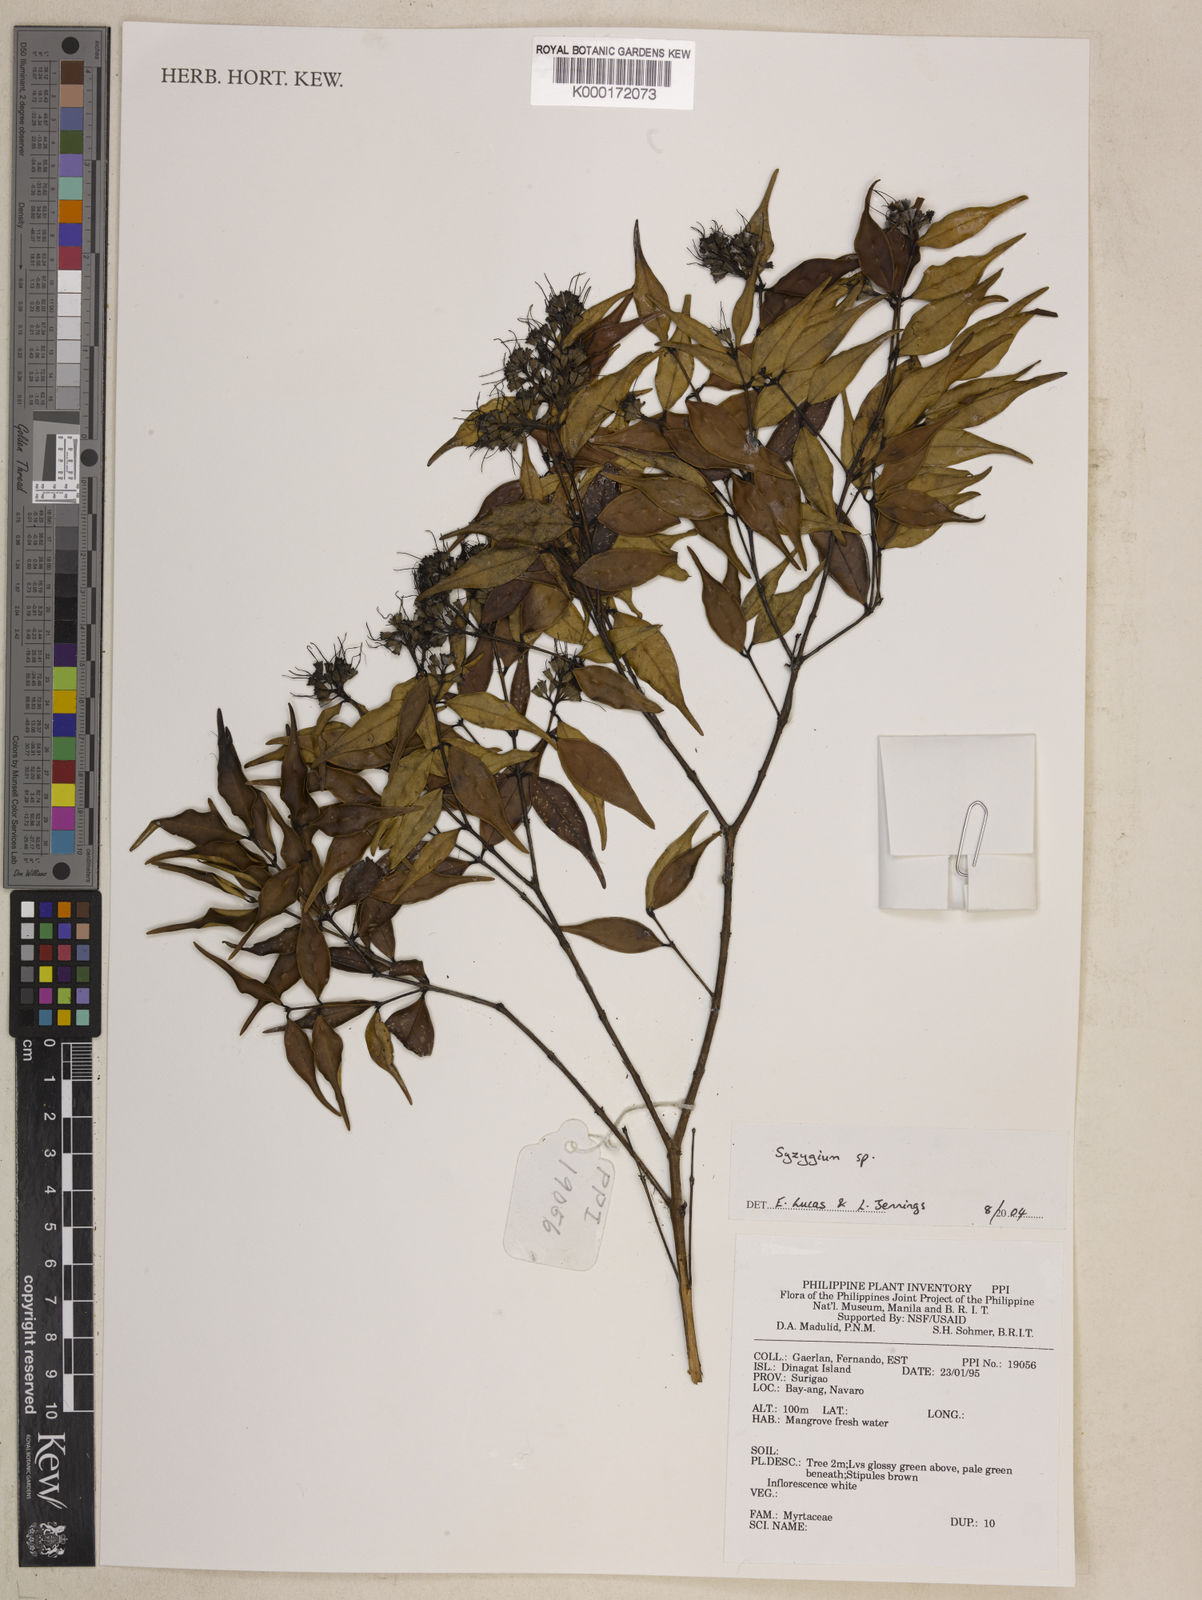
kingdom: Plantae
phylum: Tracheophyta
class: Magnoliopsida
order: Myrtales
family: Myrtaceae
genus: Syzygium
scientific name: Syzygium
